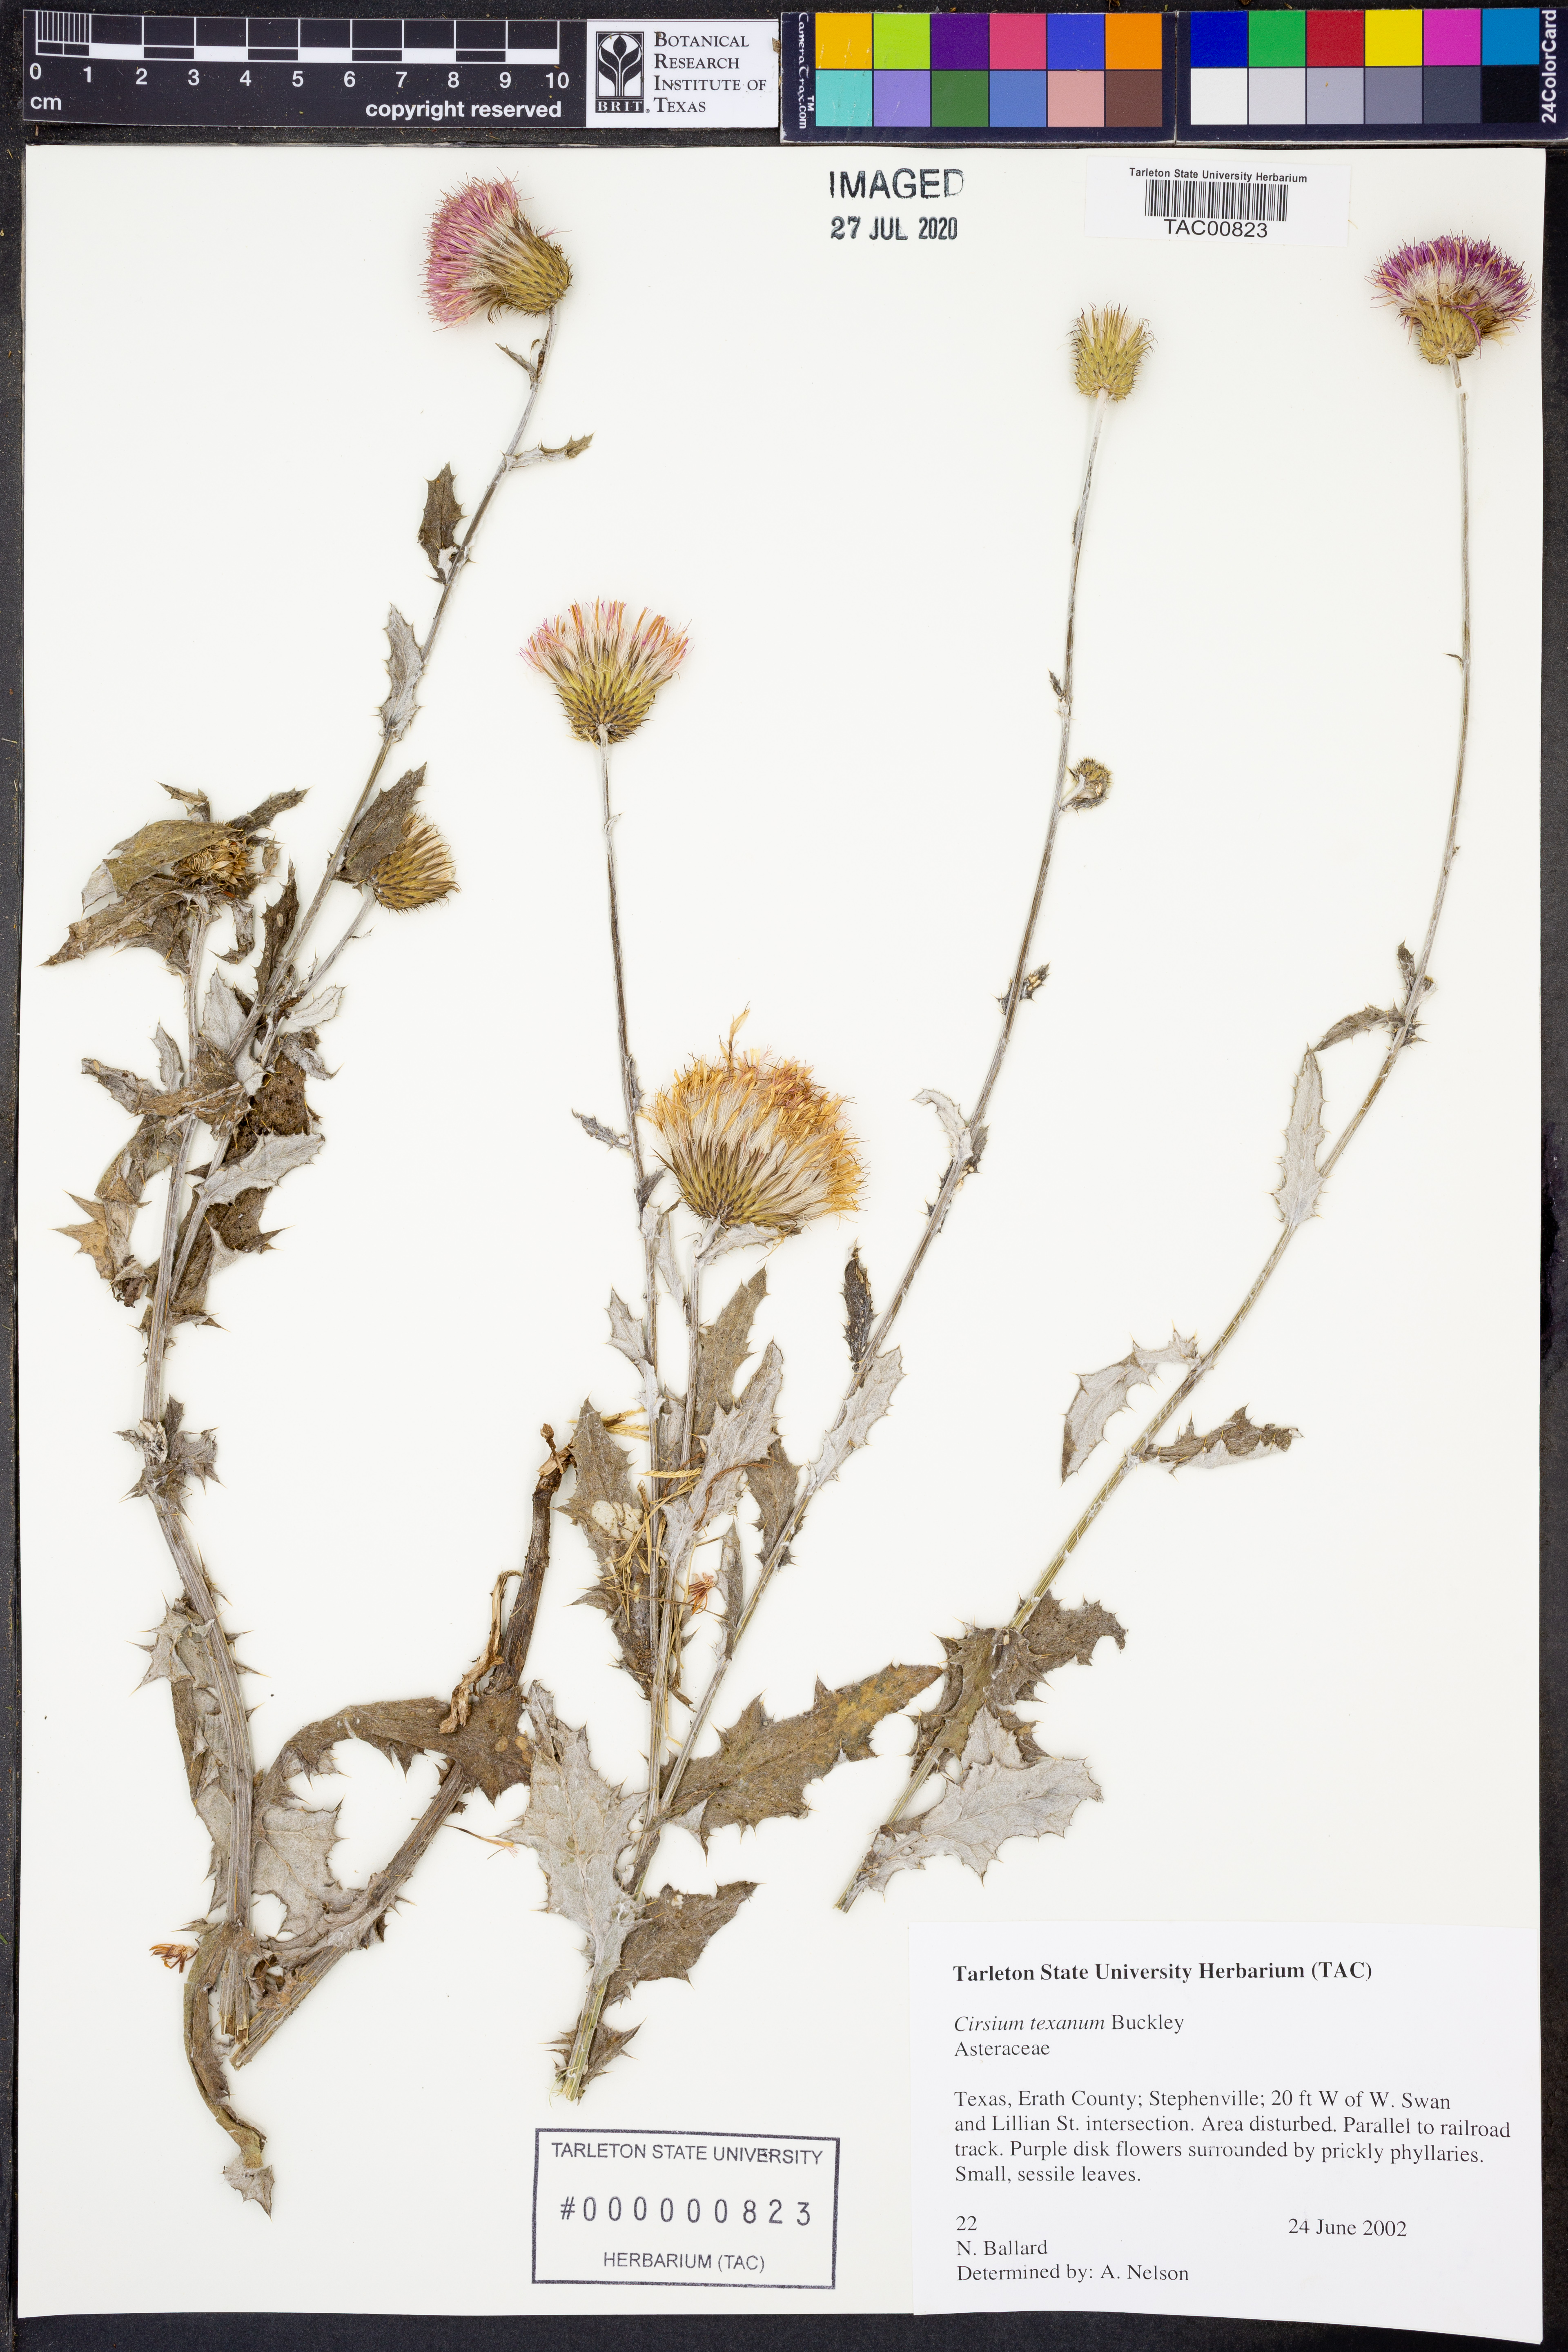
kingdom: Plantae
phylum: Tracheophyta
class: Magnoliopsida
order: Asterales
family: Asteraceae
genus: Cirsium
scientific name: Cirsium texanum
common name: Texas purple thistle
